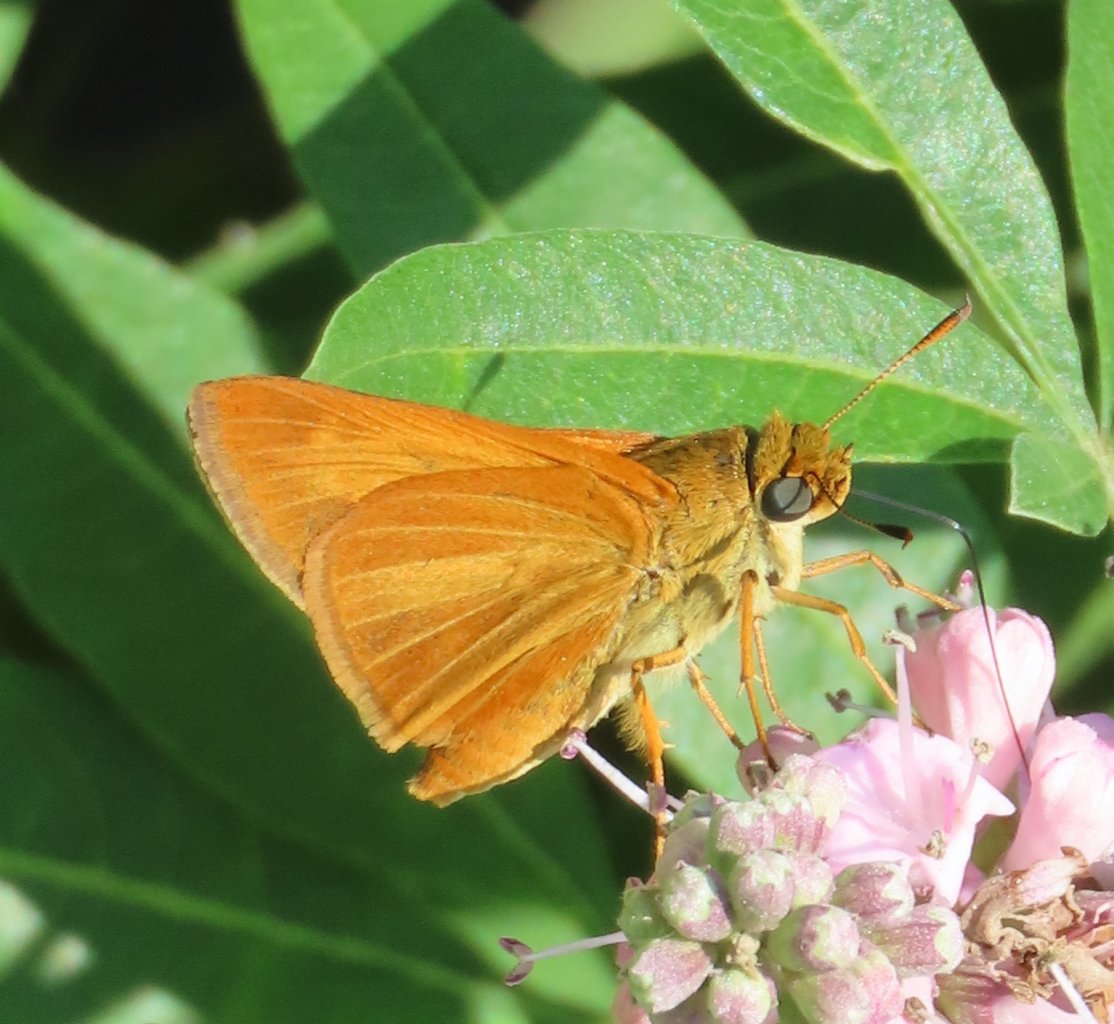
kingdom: Animalia
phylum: Arthropoda
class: Insecta
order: Lepidoptera
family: Hesperiidae
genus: Euphyes
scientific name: Euphyes dion
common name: Dion Skipper
